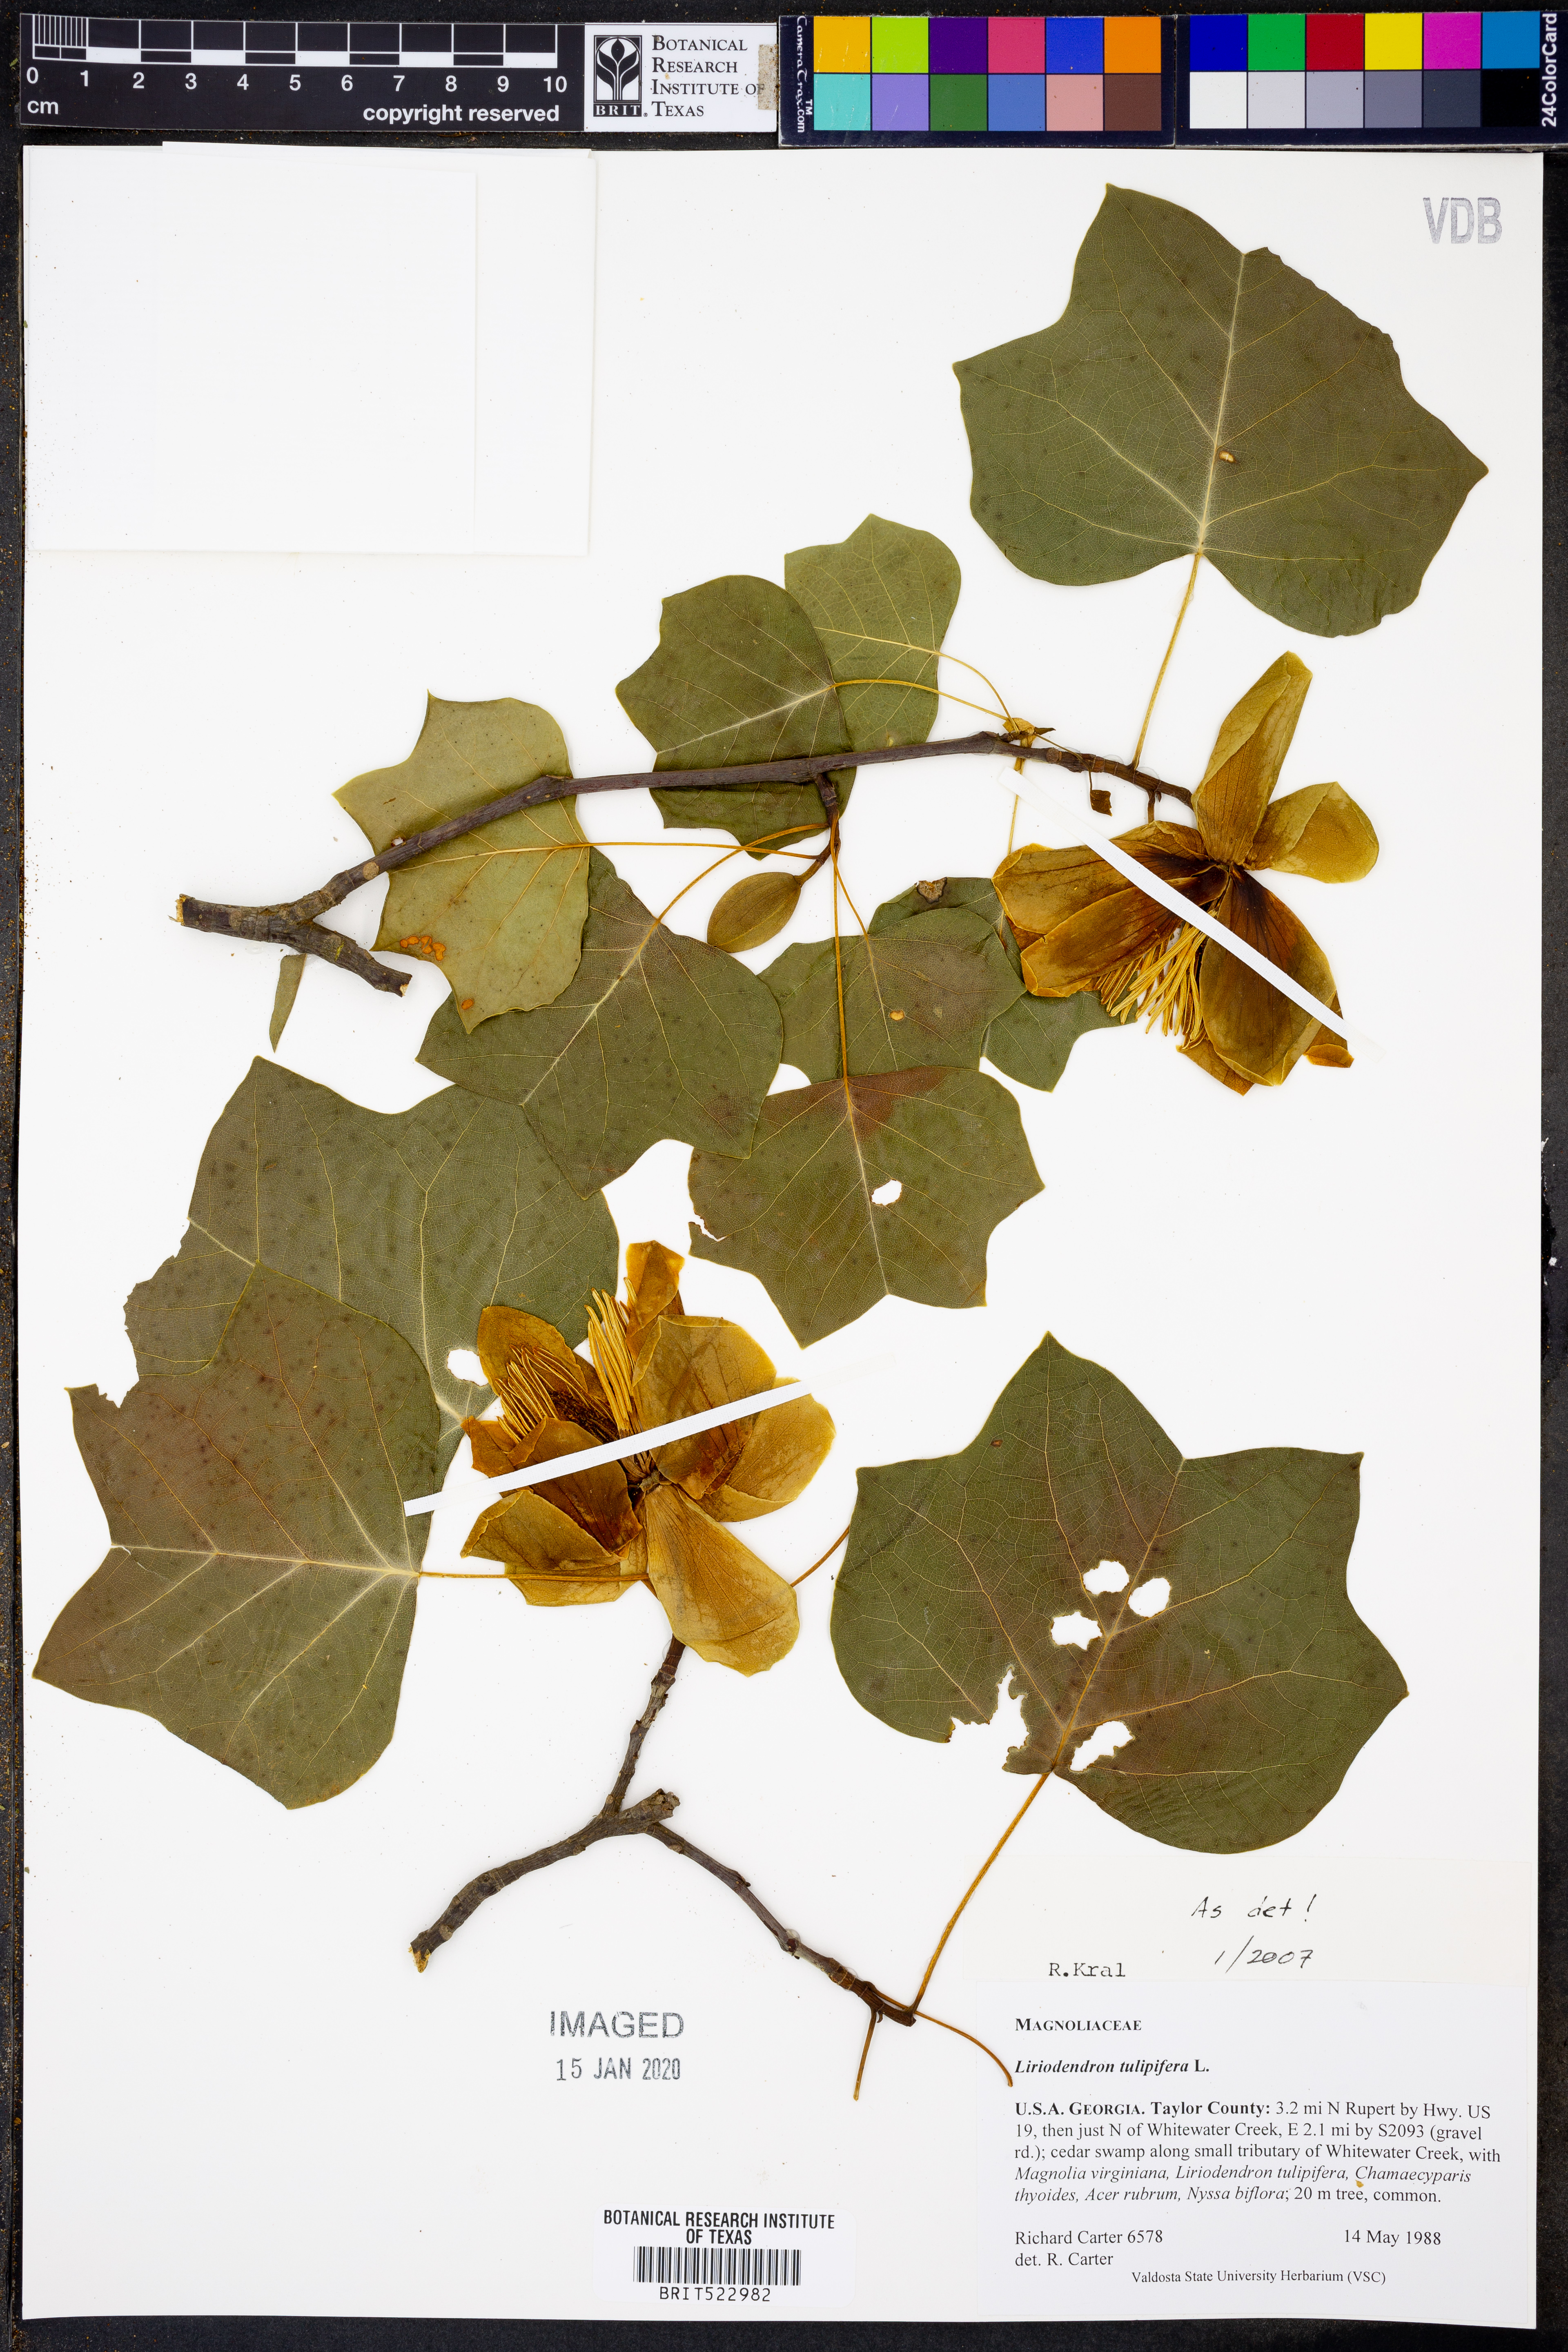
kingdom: Plantae
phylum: Tracheophyta
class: Magnoliopsida
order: Magnoliales
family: Magnoliaceae
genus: Liriodendron
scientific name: Liriodendron tulipifera
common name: Tulip tree
